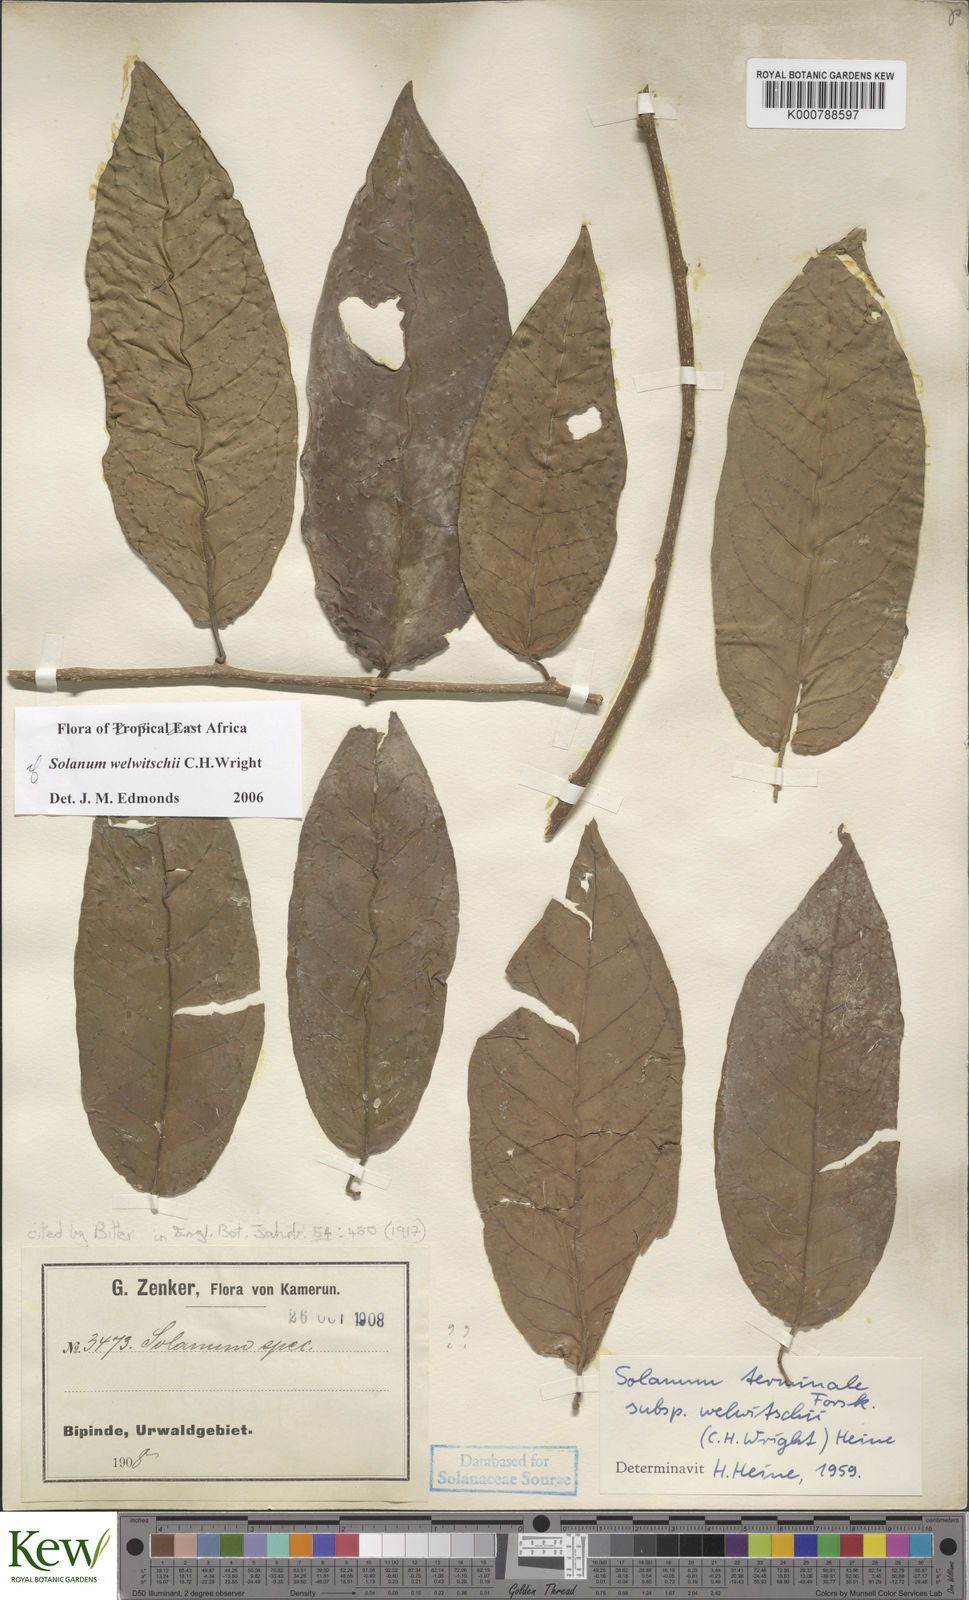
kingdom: Plantae
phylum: Tracheophyta
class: Magnoliopsida
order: Solanales
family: Solanaceae
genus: Solanum
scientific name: Solanum terminale
